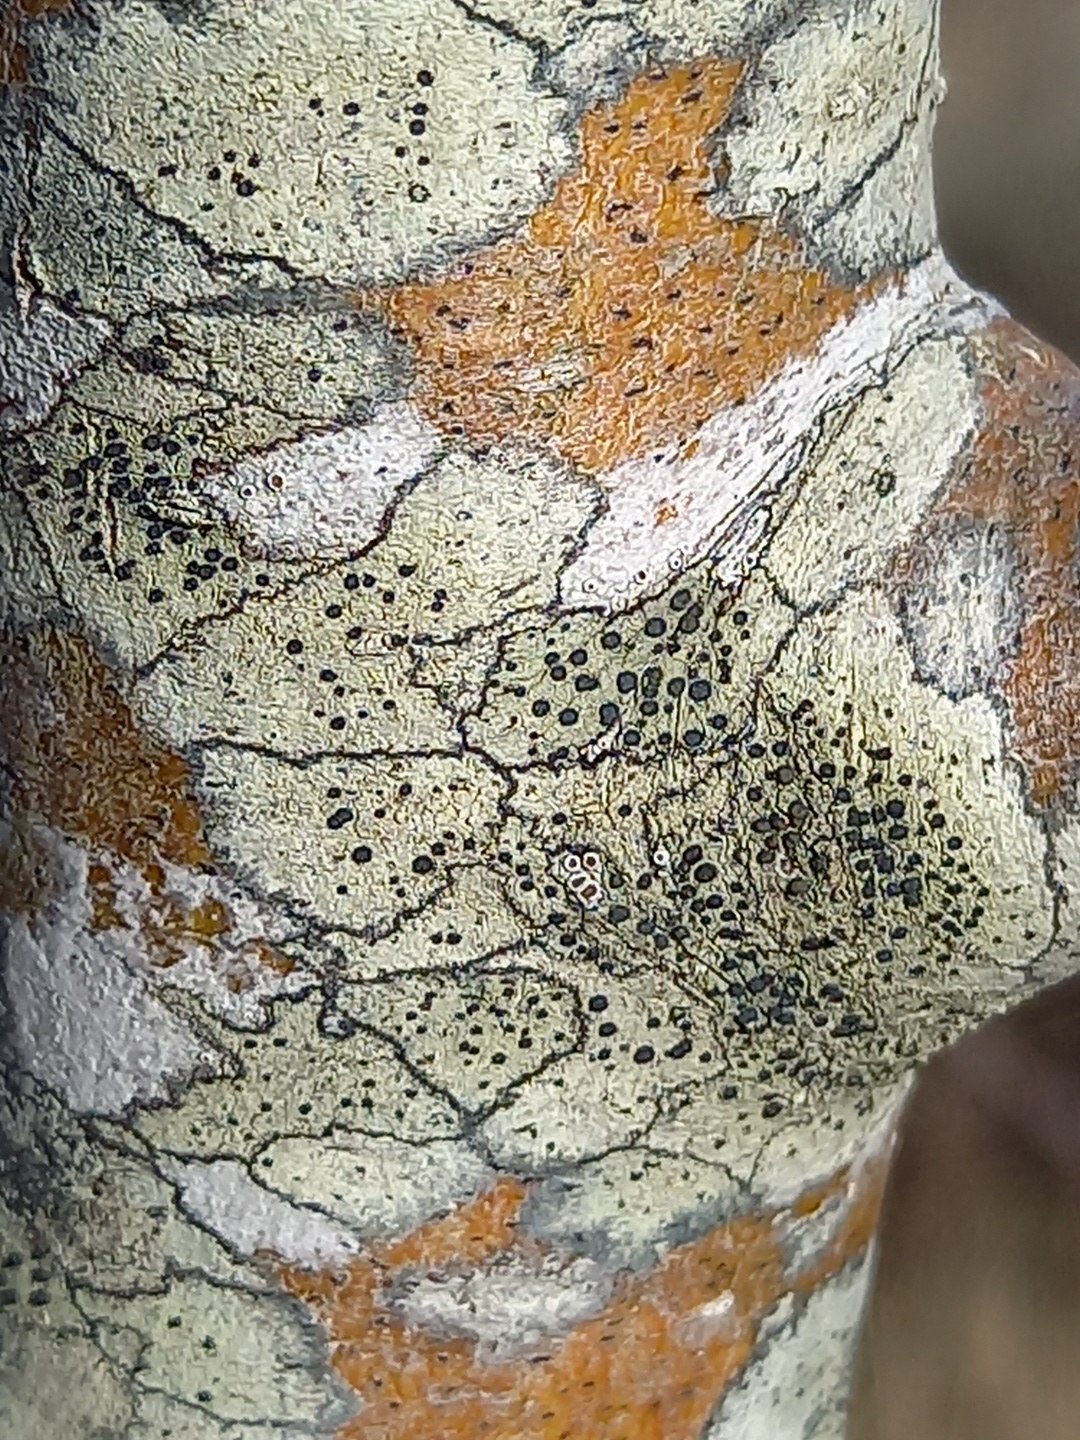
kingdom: Fungi
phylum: Ascomycota
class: Lecanoromycetes
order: Lecanorales
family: Lecanoraceae
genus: Lecidella
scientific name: Lecidella elaeochroma
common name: grågrøn skivelav
